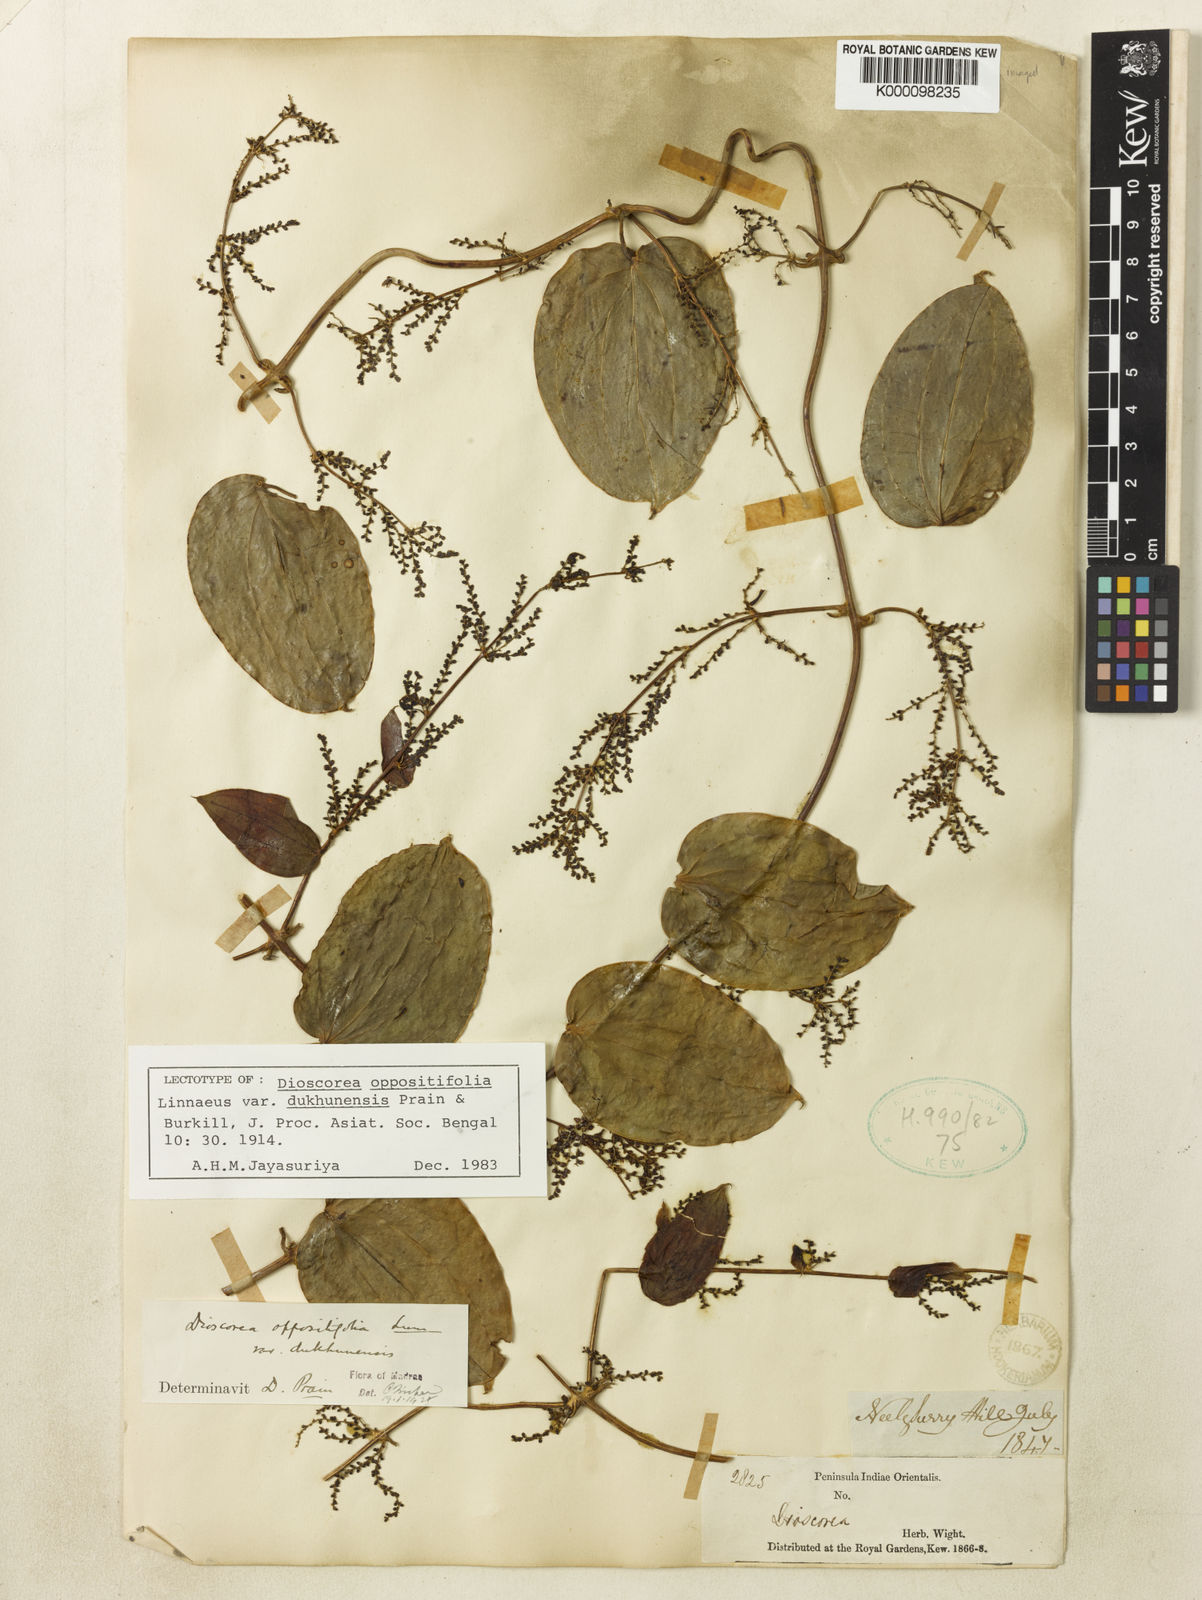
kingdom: Plantae
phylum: Tracheophyta
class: Liliopsida
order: Dioscoreales
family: Dioscoreaceae
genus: Dioscorea
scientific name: Dioscorea oppositifolia
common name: Chinese yam
